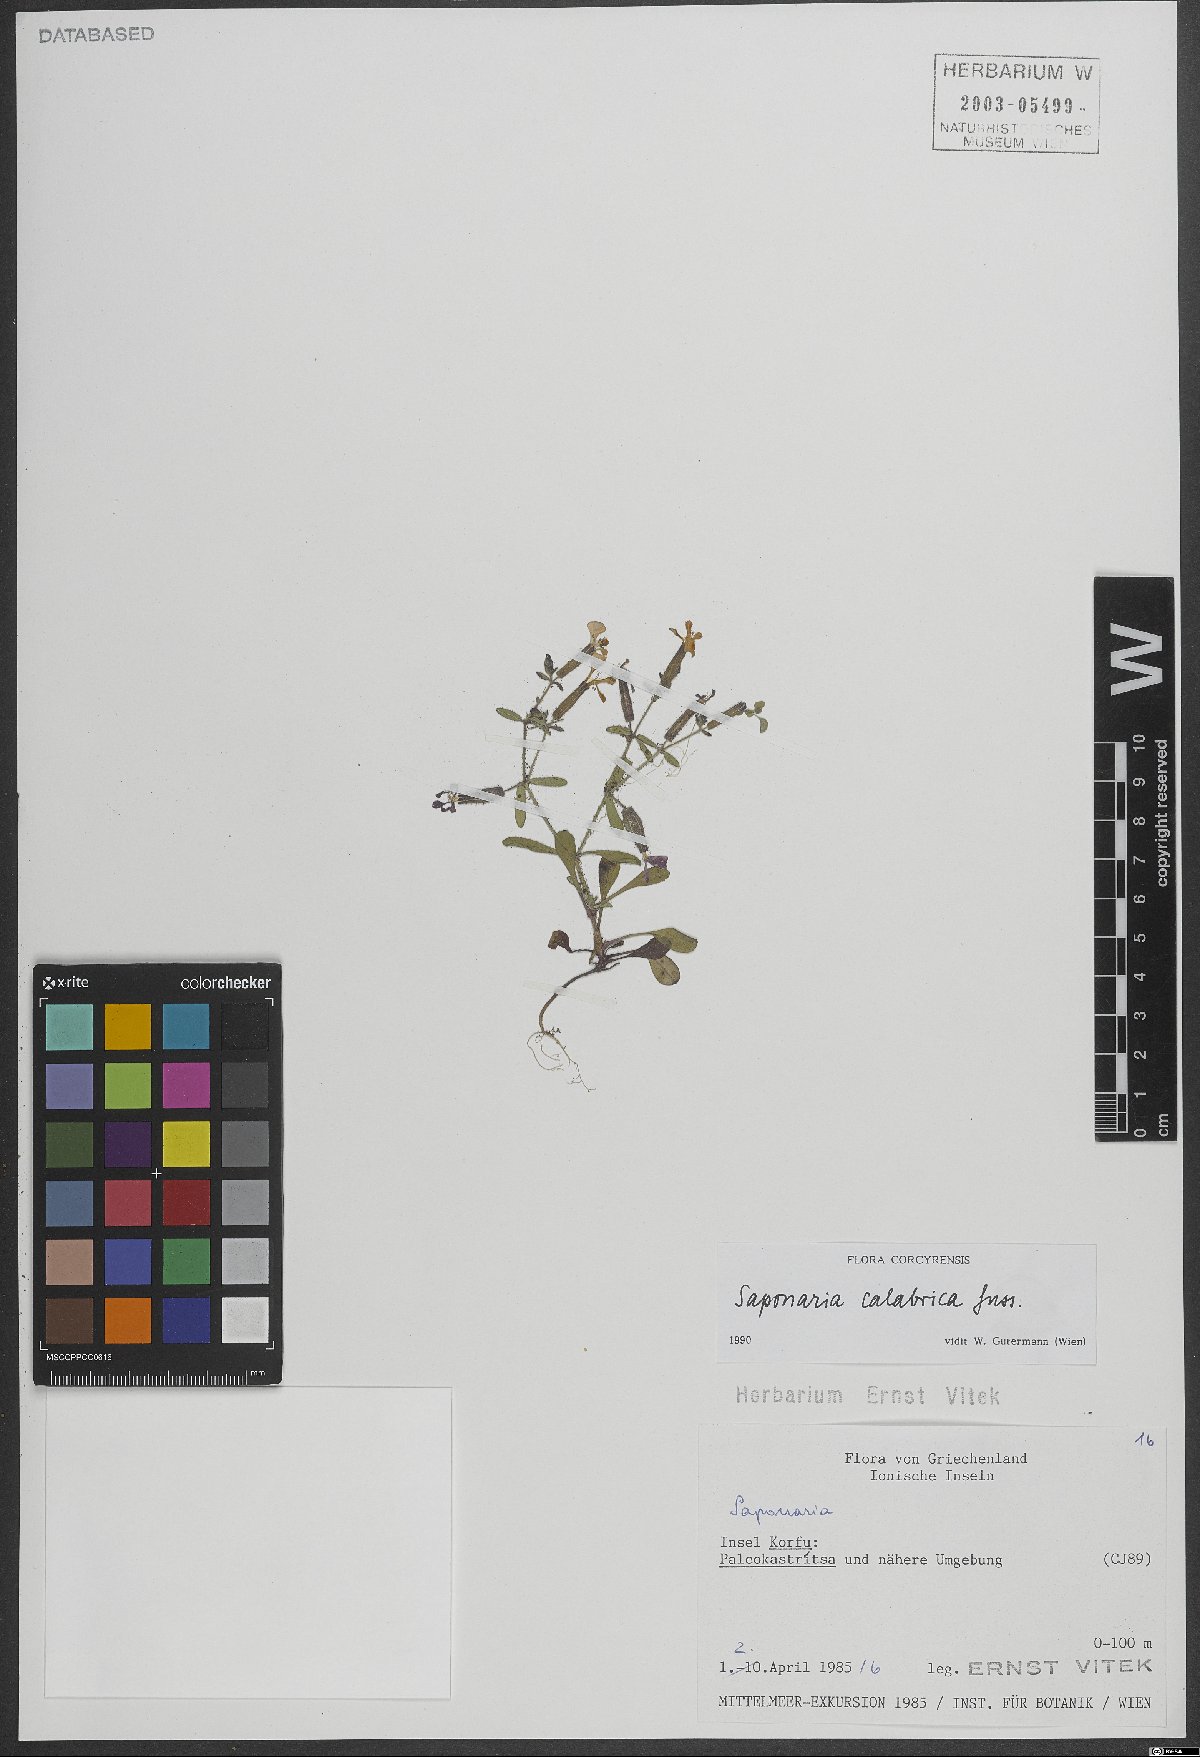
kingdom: Plantae
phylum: Tracheophyta
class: Magnoliopsida
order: Caryophyllales
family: Caryophyllaceae
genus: Saponaria
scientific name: Saponaria calabrica
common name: Adriatic soapwort
